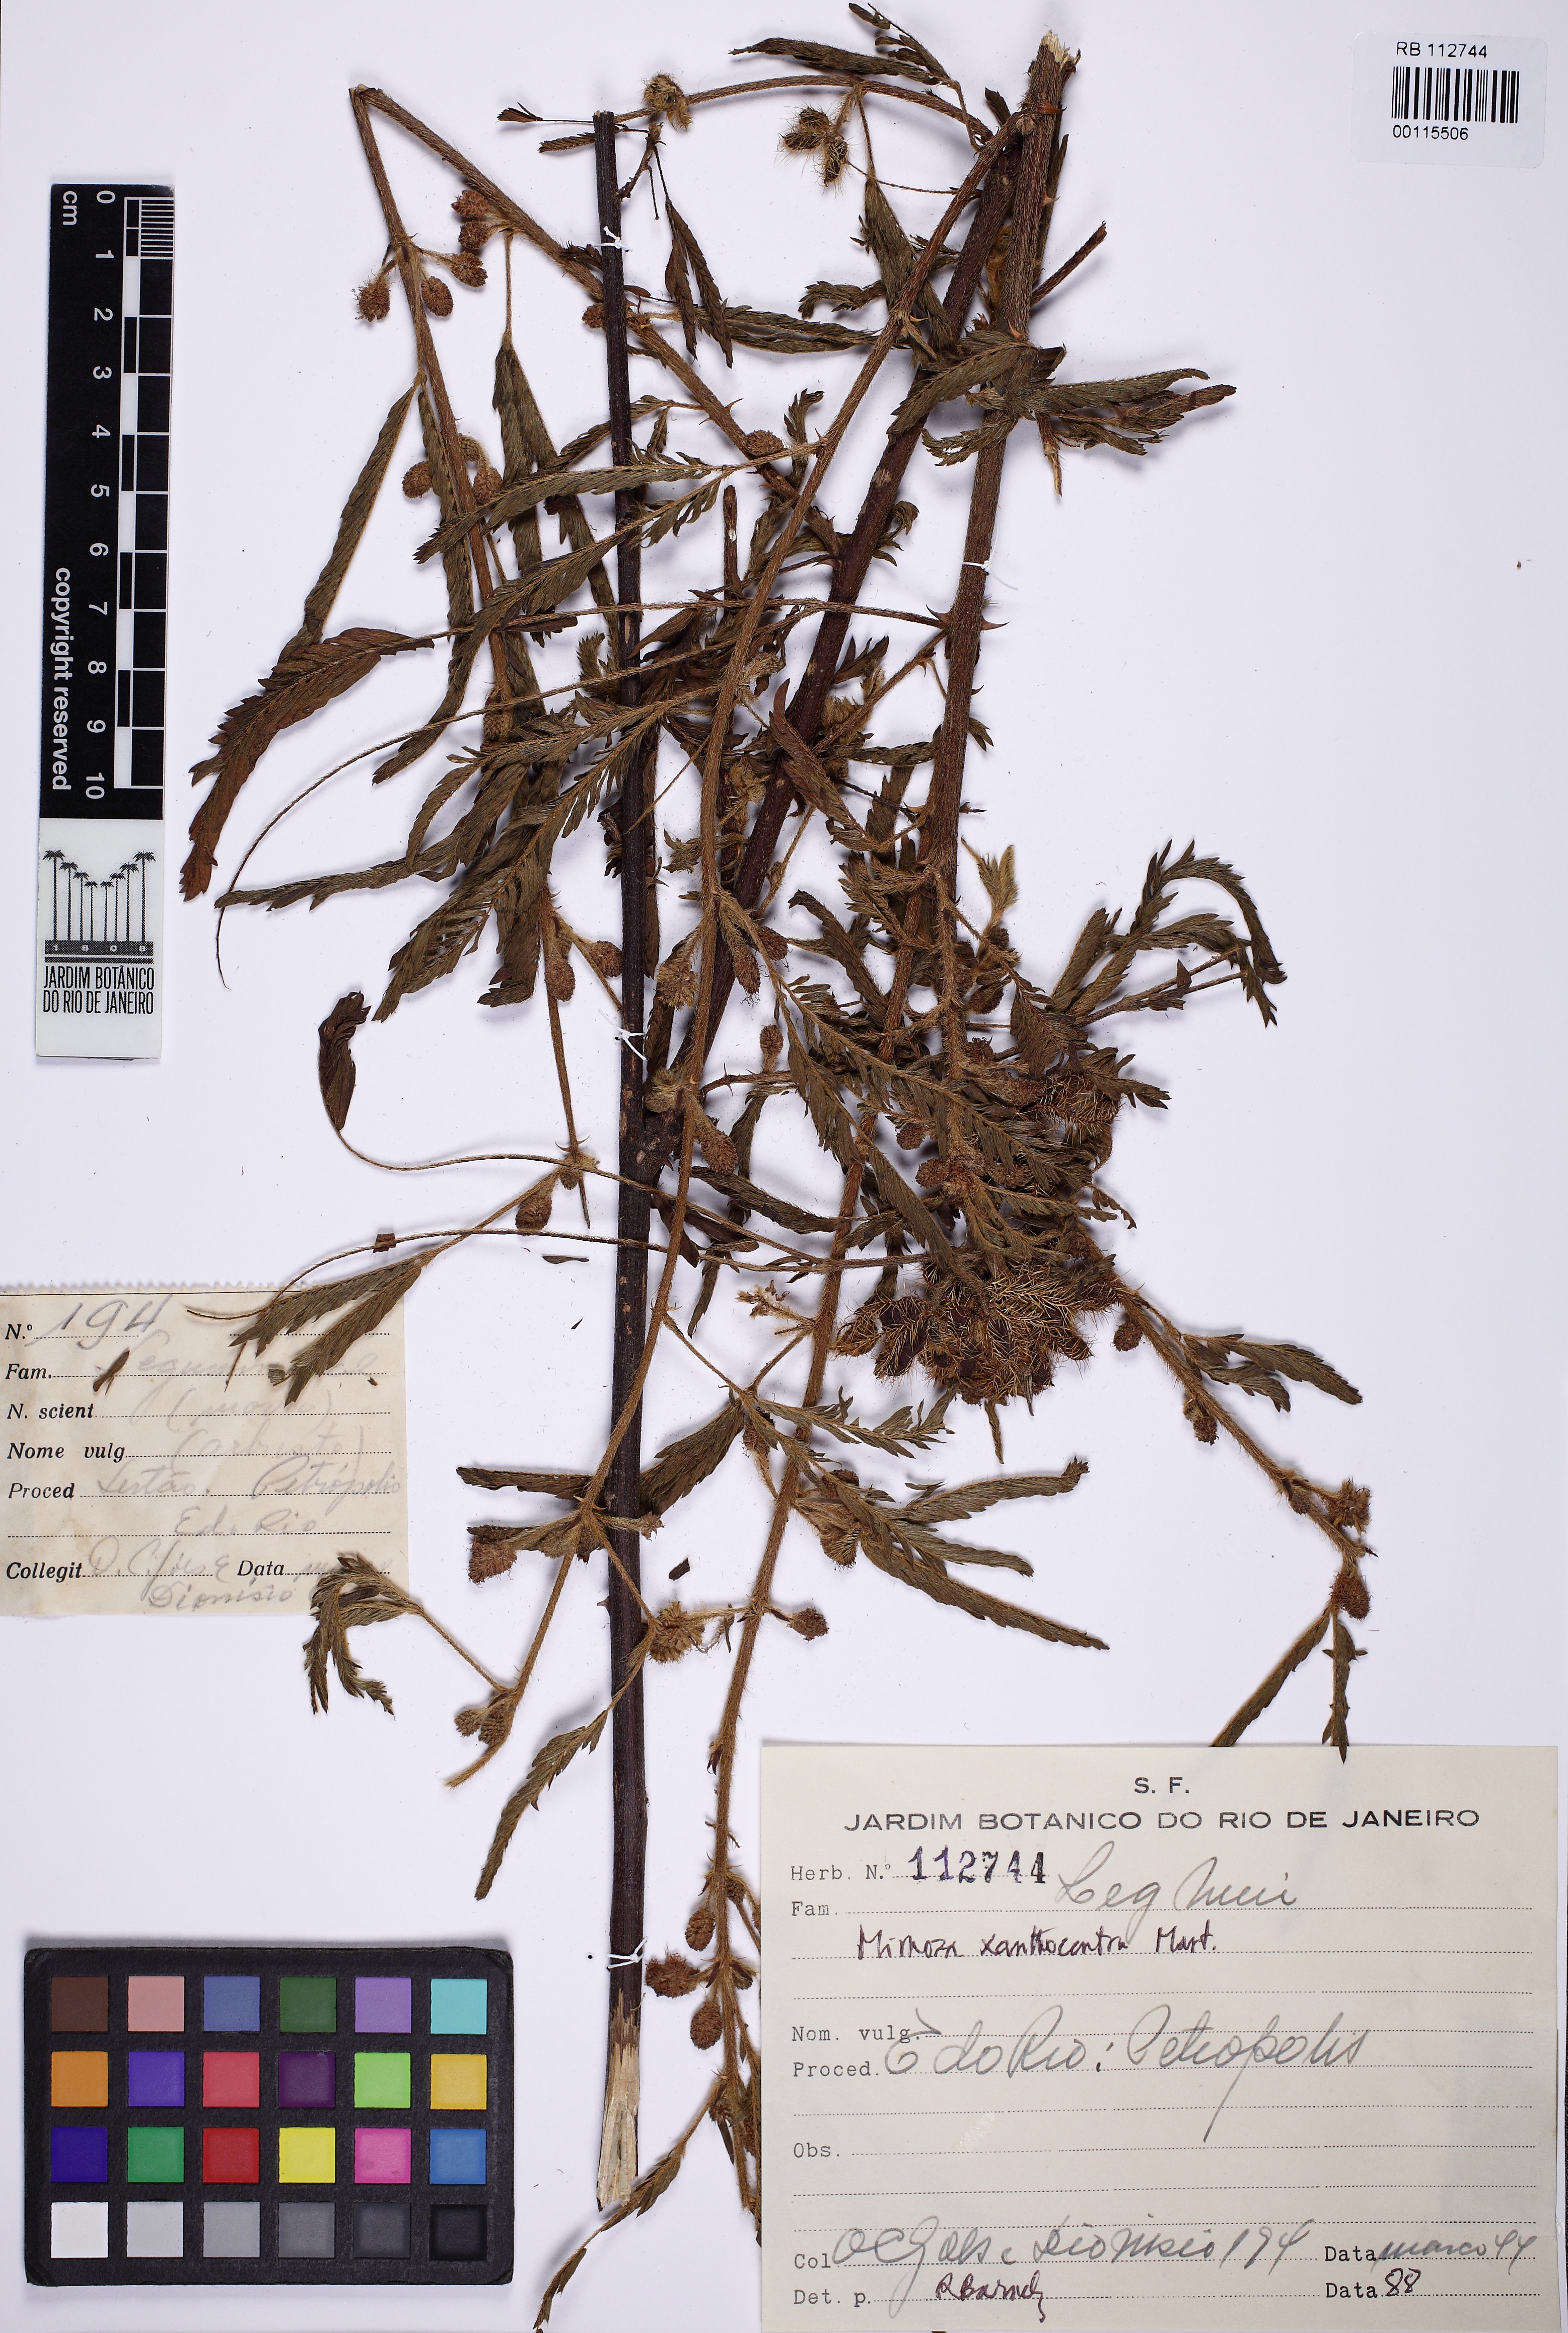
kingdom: Plantae
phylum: Tracheophyta
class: Magnoliopsida
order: Fabales
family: Fabaceae
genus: Mimosa
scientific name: Mimosa xanthocentra
